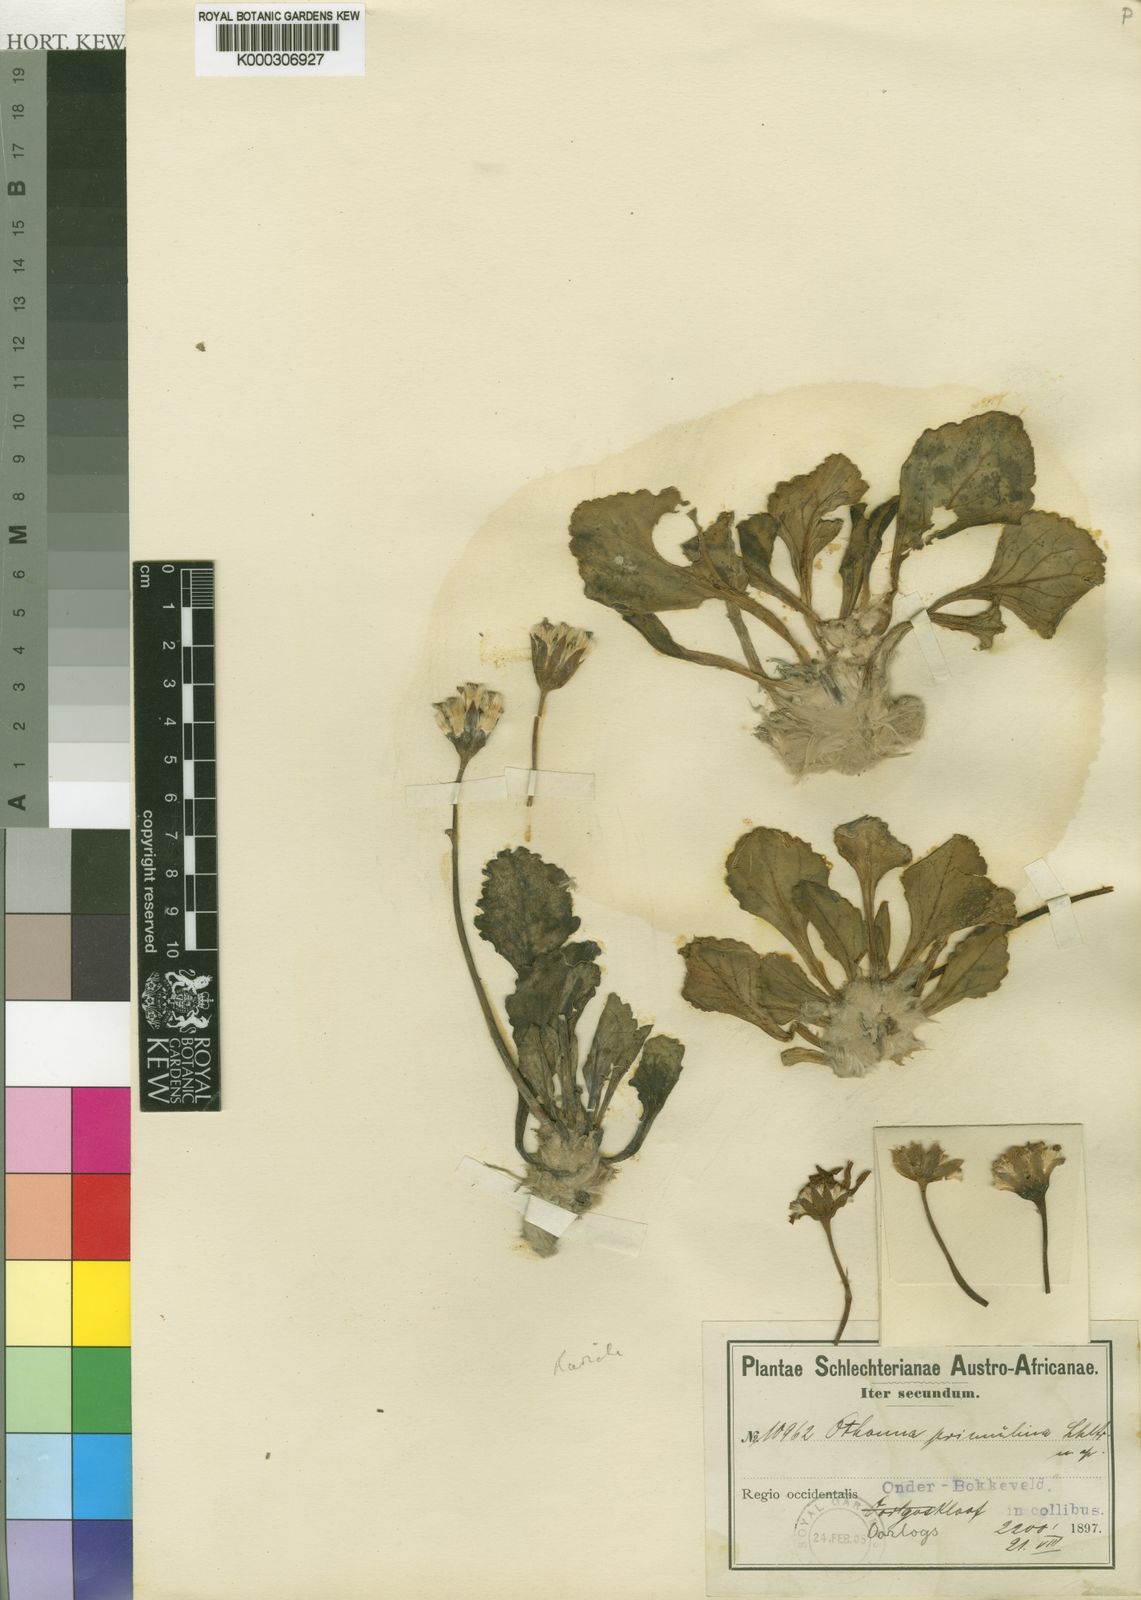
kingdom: Plantae
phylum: Tracheophyta
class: Magnoliopsida
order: Asterales
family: Asteraceae
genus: Othonna
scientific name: Othonna
